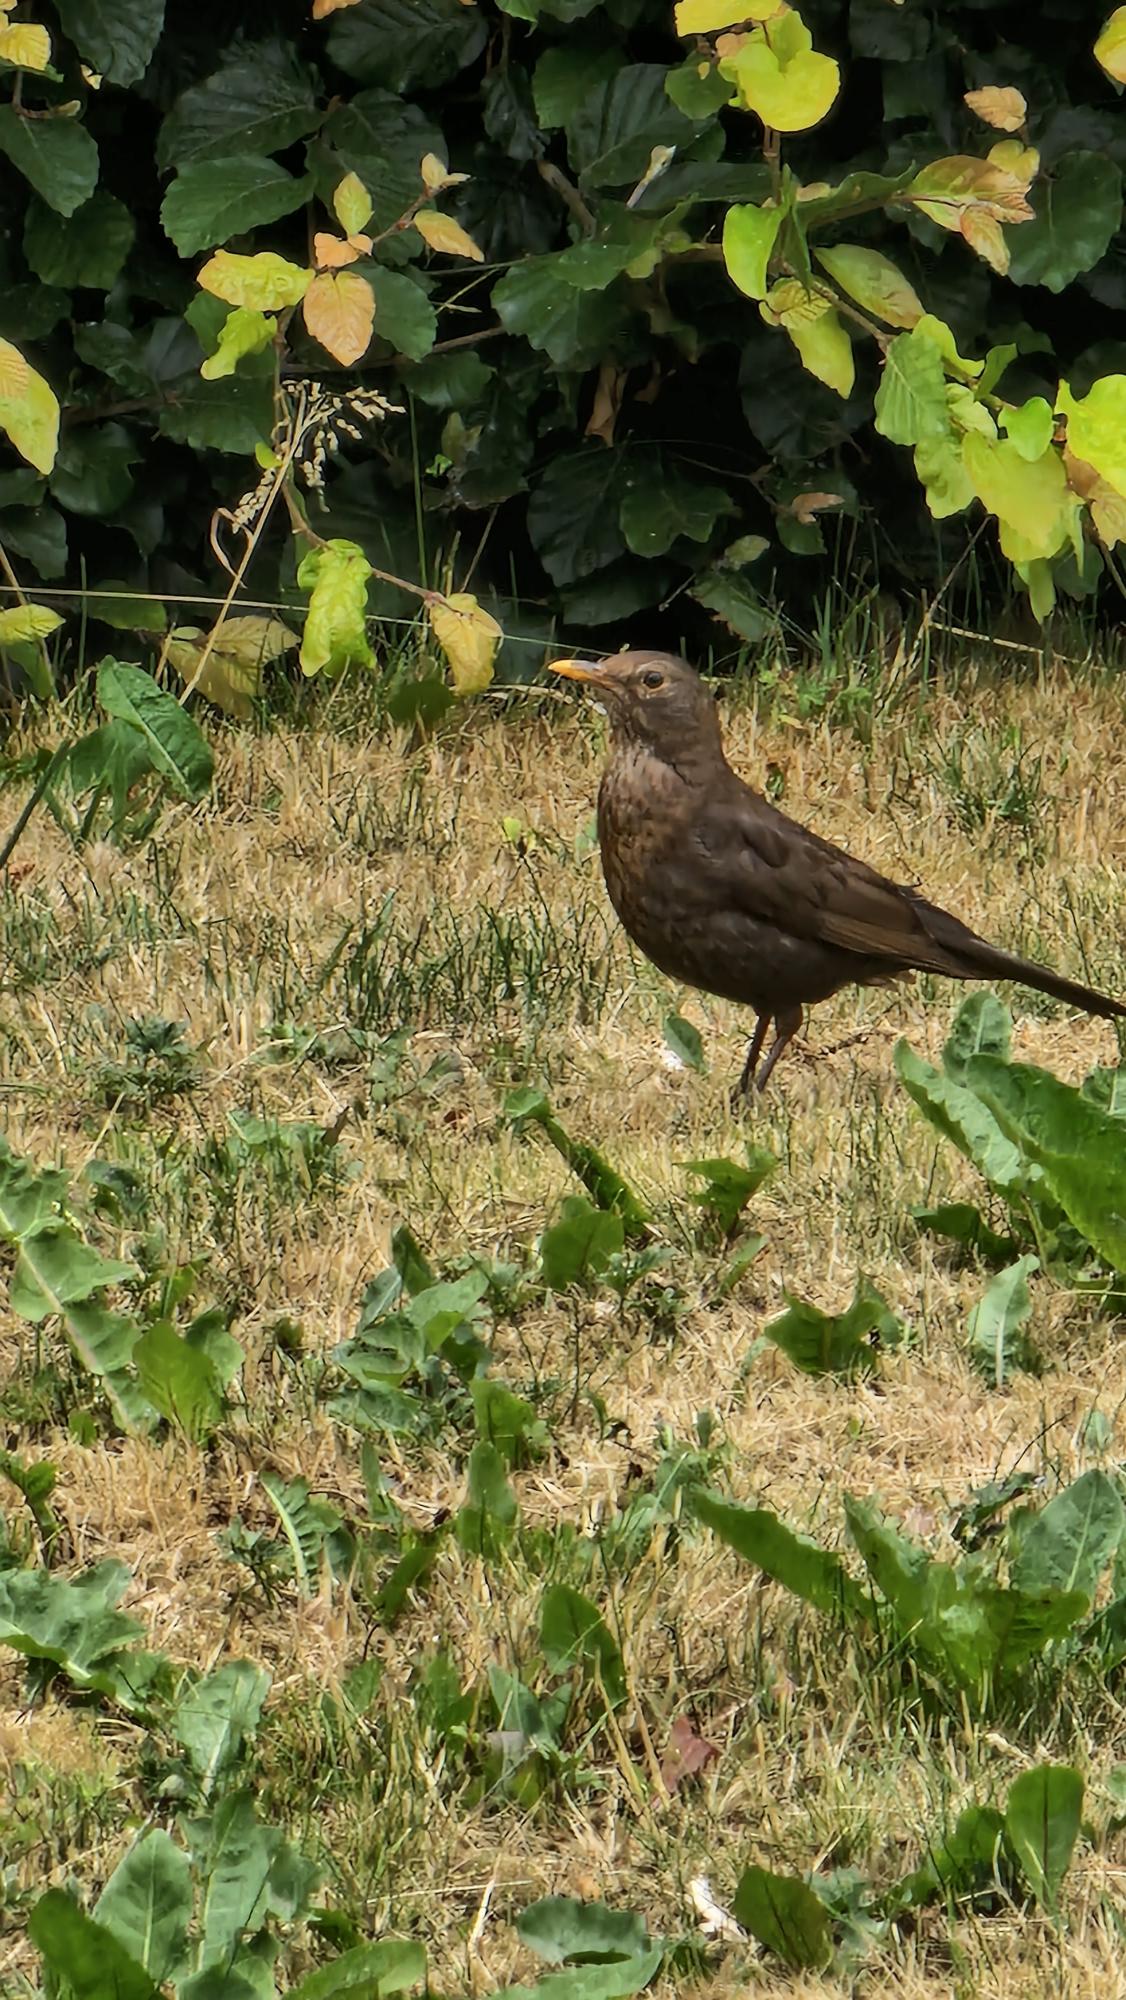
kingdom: Animalia
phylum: Chordata
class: Aves
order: Passeriformes
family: Turdidae
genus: Turdus
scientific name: Turdus merula
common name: Solsort
